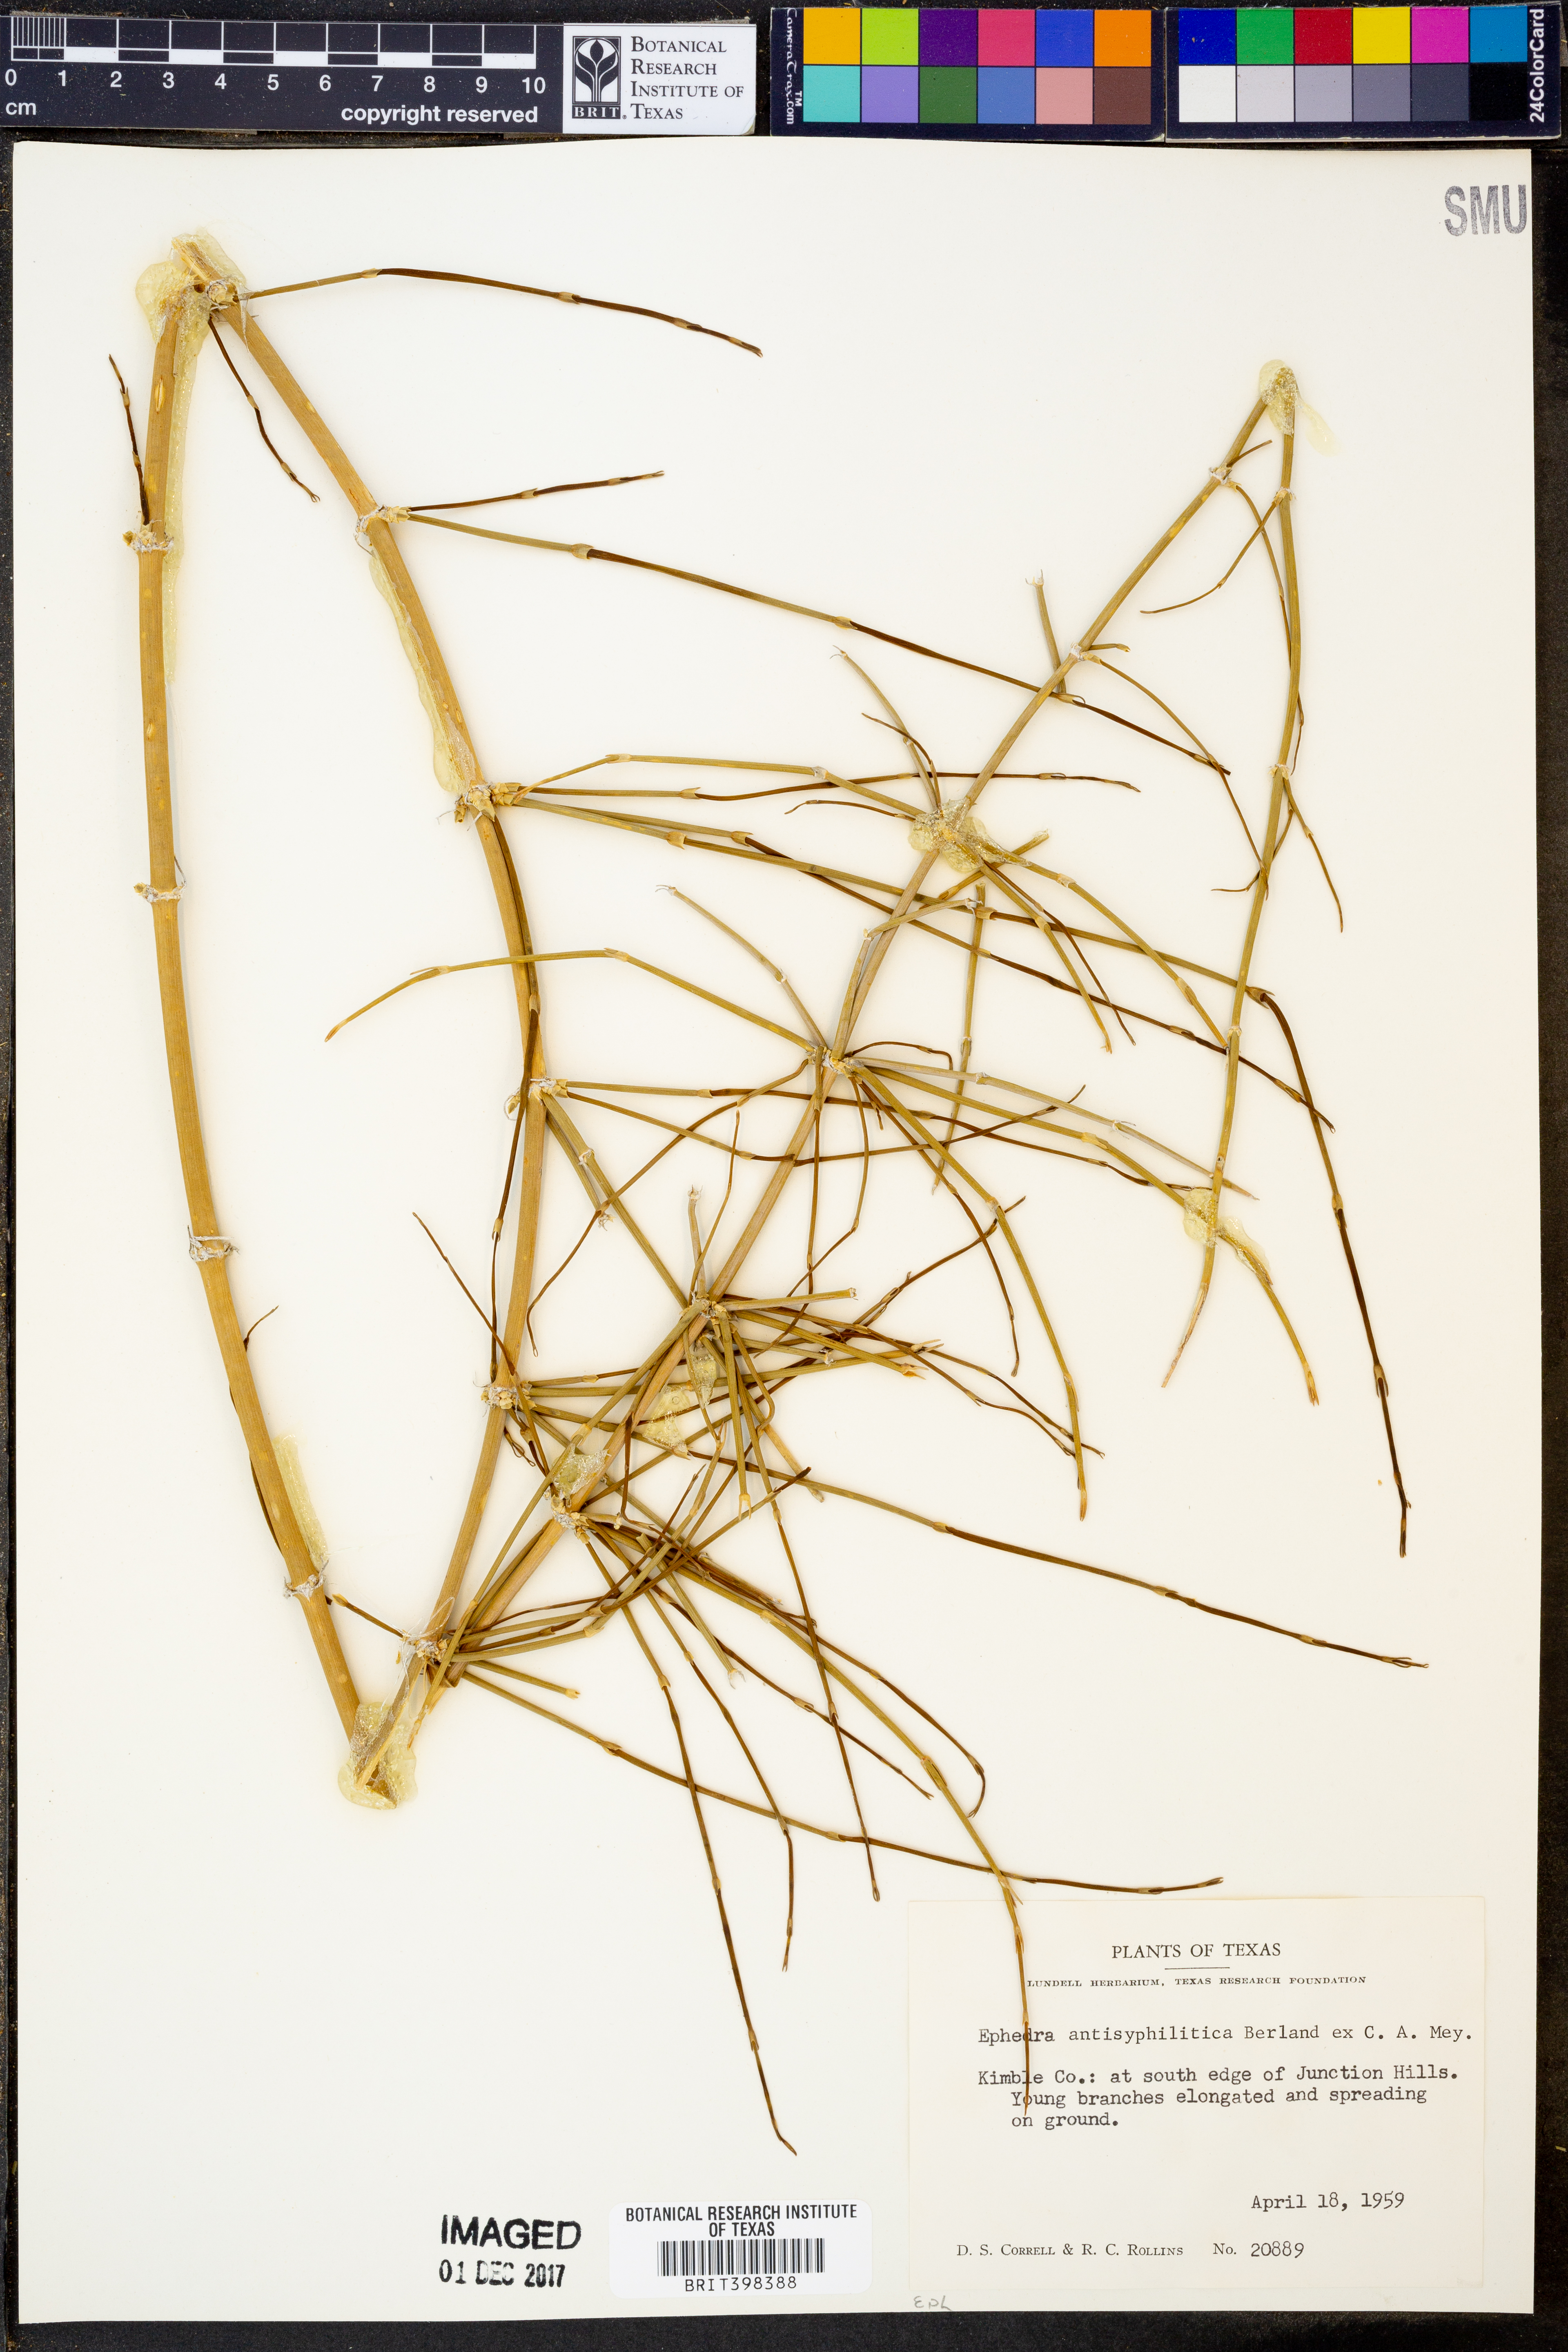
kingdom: Plantae
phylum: Tracheophyta
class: Gnetopsida
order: Ephedrales
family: Ephedraceae
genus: Ephedra
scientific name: Ephedra antisyphilitica
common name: Clipweed
